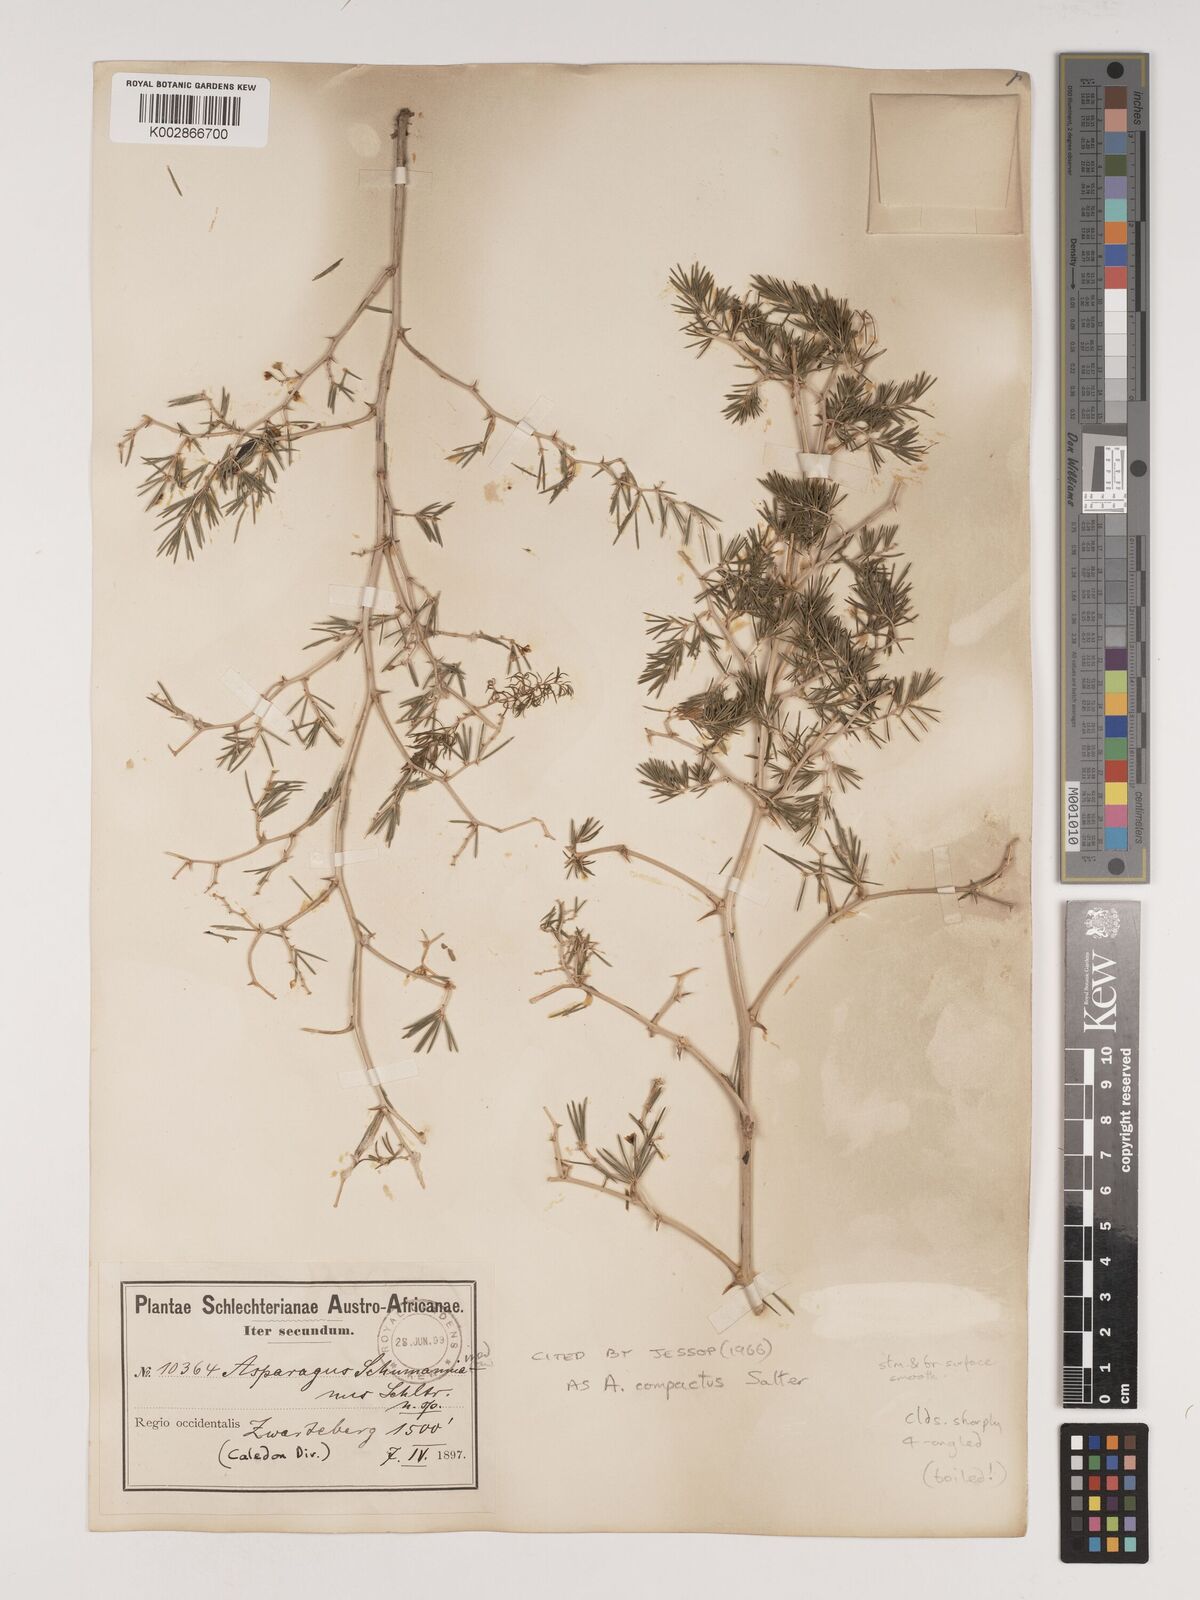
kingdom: Plantae
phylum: Tracheophyta
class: Liliopsida
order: Asparagales
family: Asparagaceae
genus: Asparagus
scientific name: Asparagus lignosus
